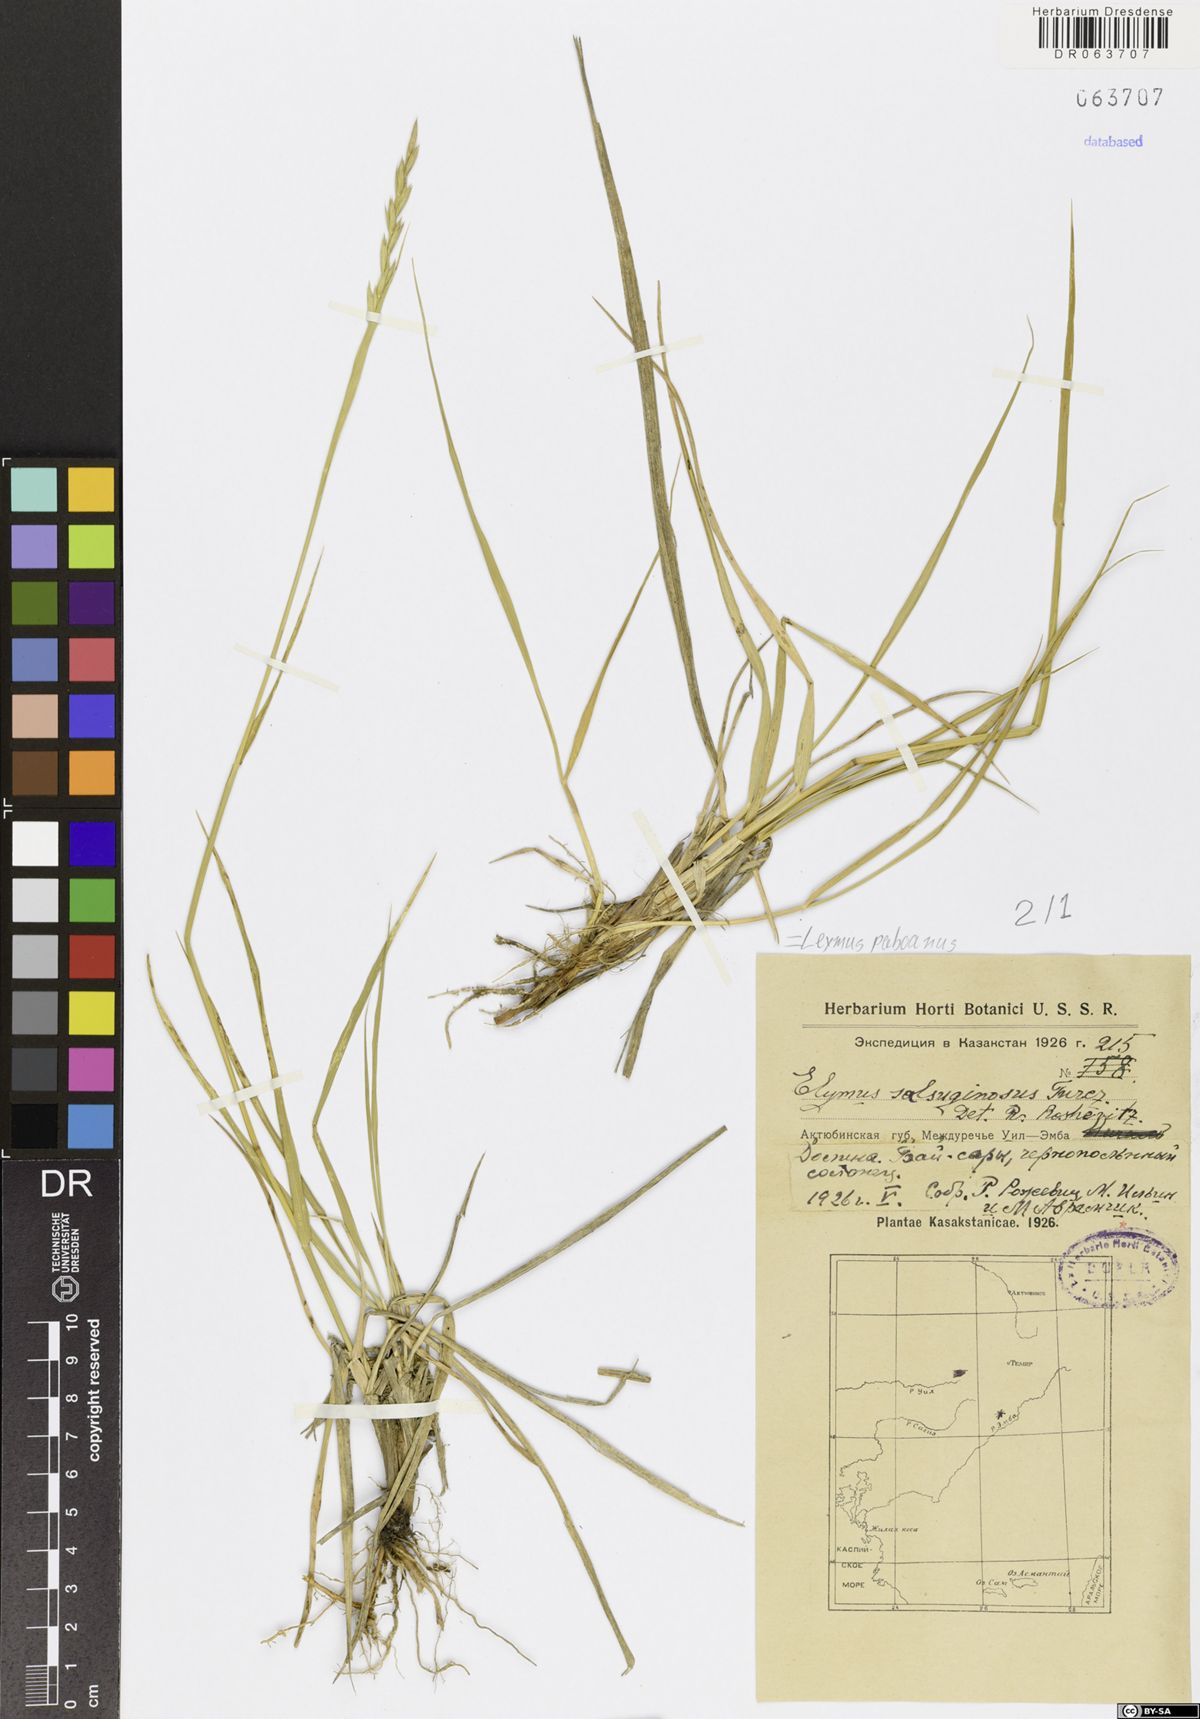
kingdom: Plantae
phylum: Tracheophyta
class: Liliopsida
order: Poales
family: Poaceae
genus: Leymus
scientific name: Leymus paboanus
